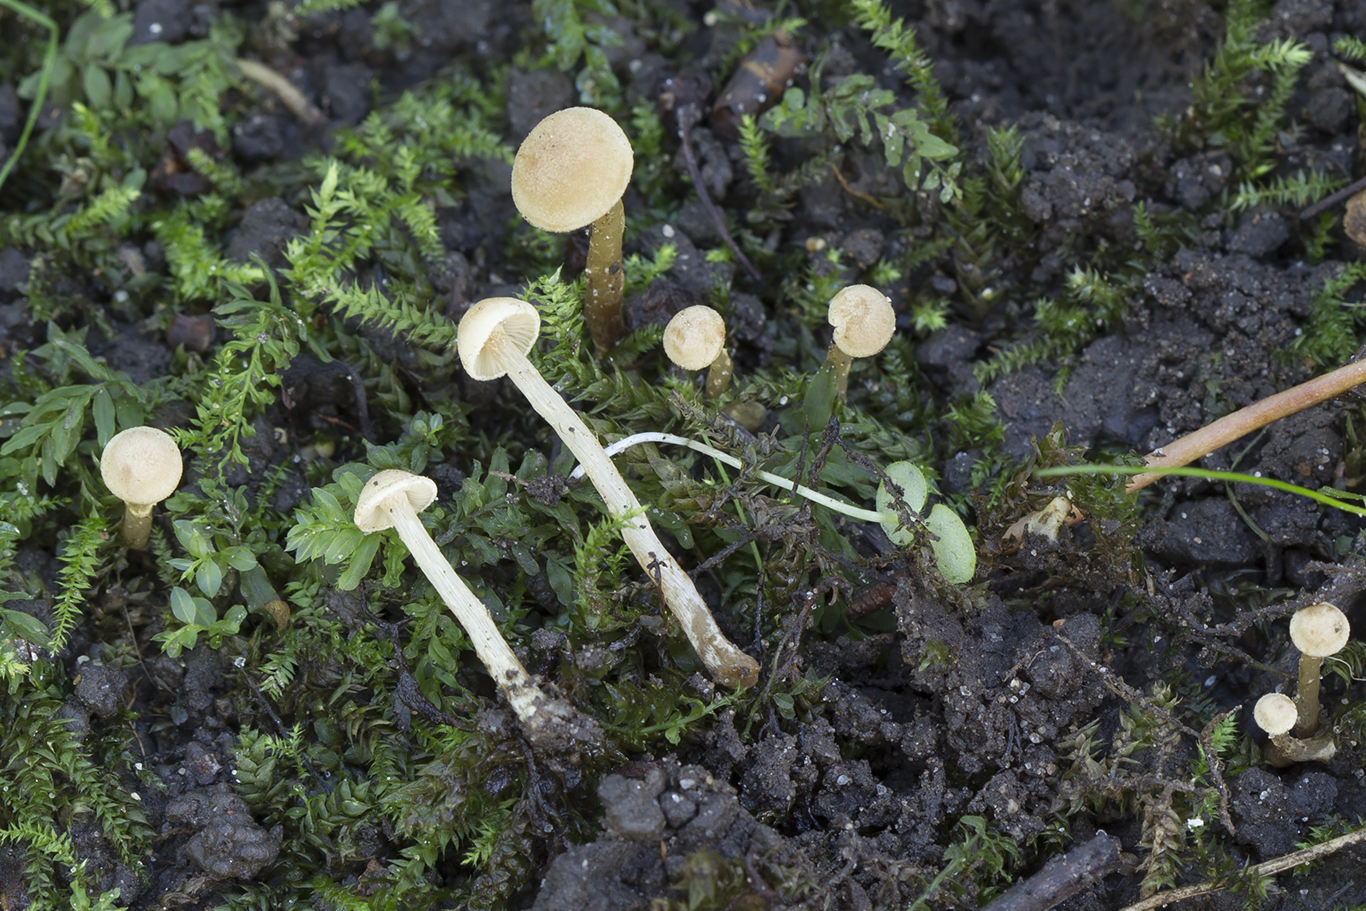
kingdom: Fungi
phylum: Basidiomycota
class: Agaricomycetes
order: Agaricales
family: Hymenogastraceae
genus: Naucoria
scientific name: Naucoria
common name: knaphat
